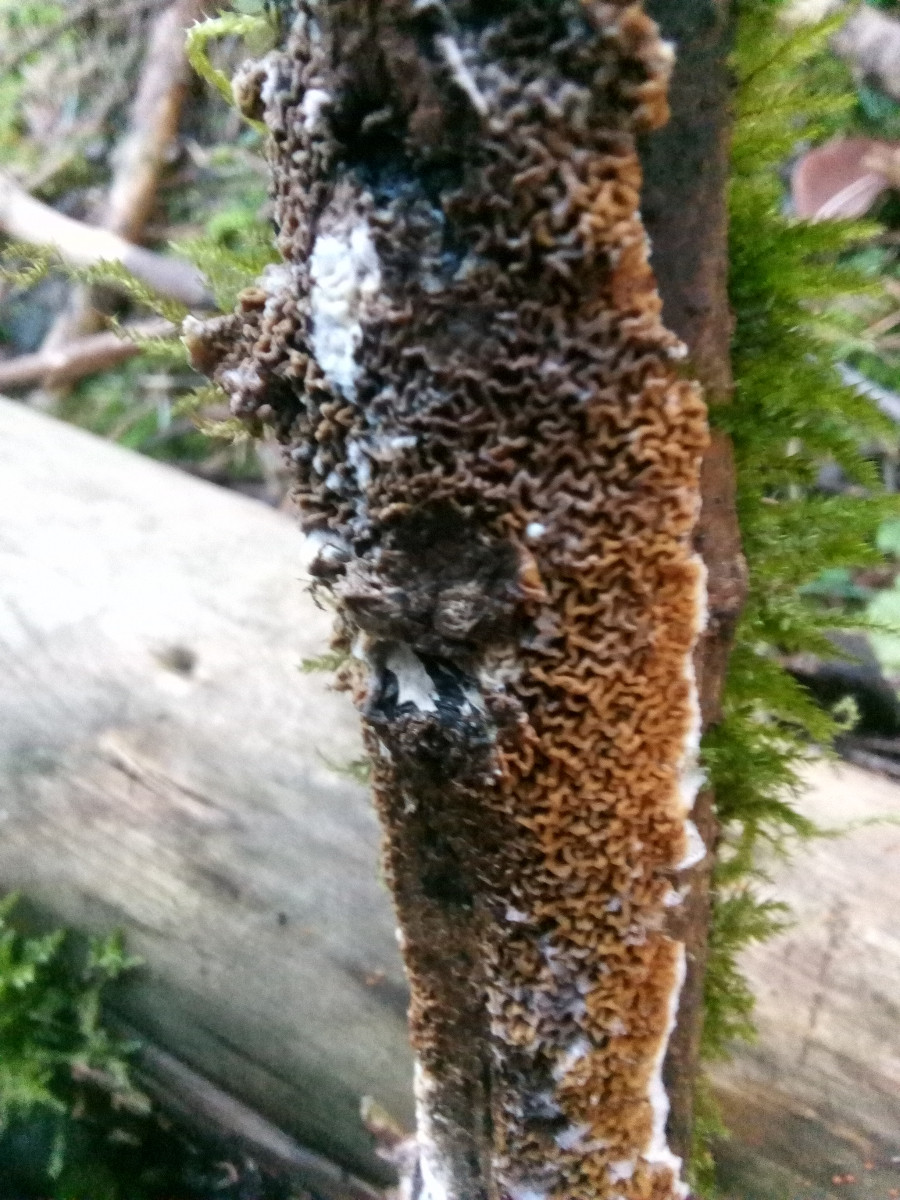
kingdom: Fungi
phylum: Basidiomycota
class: Agaricomycetes
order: Boletales
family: Serpulaceae
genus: Serpula
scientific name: Serpula himantioides
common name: tyndkødet hussvamp
